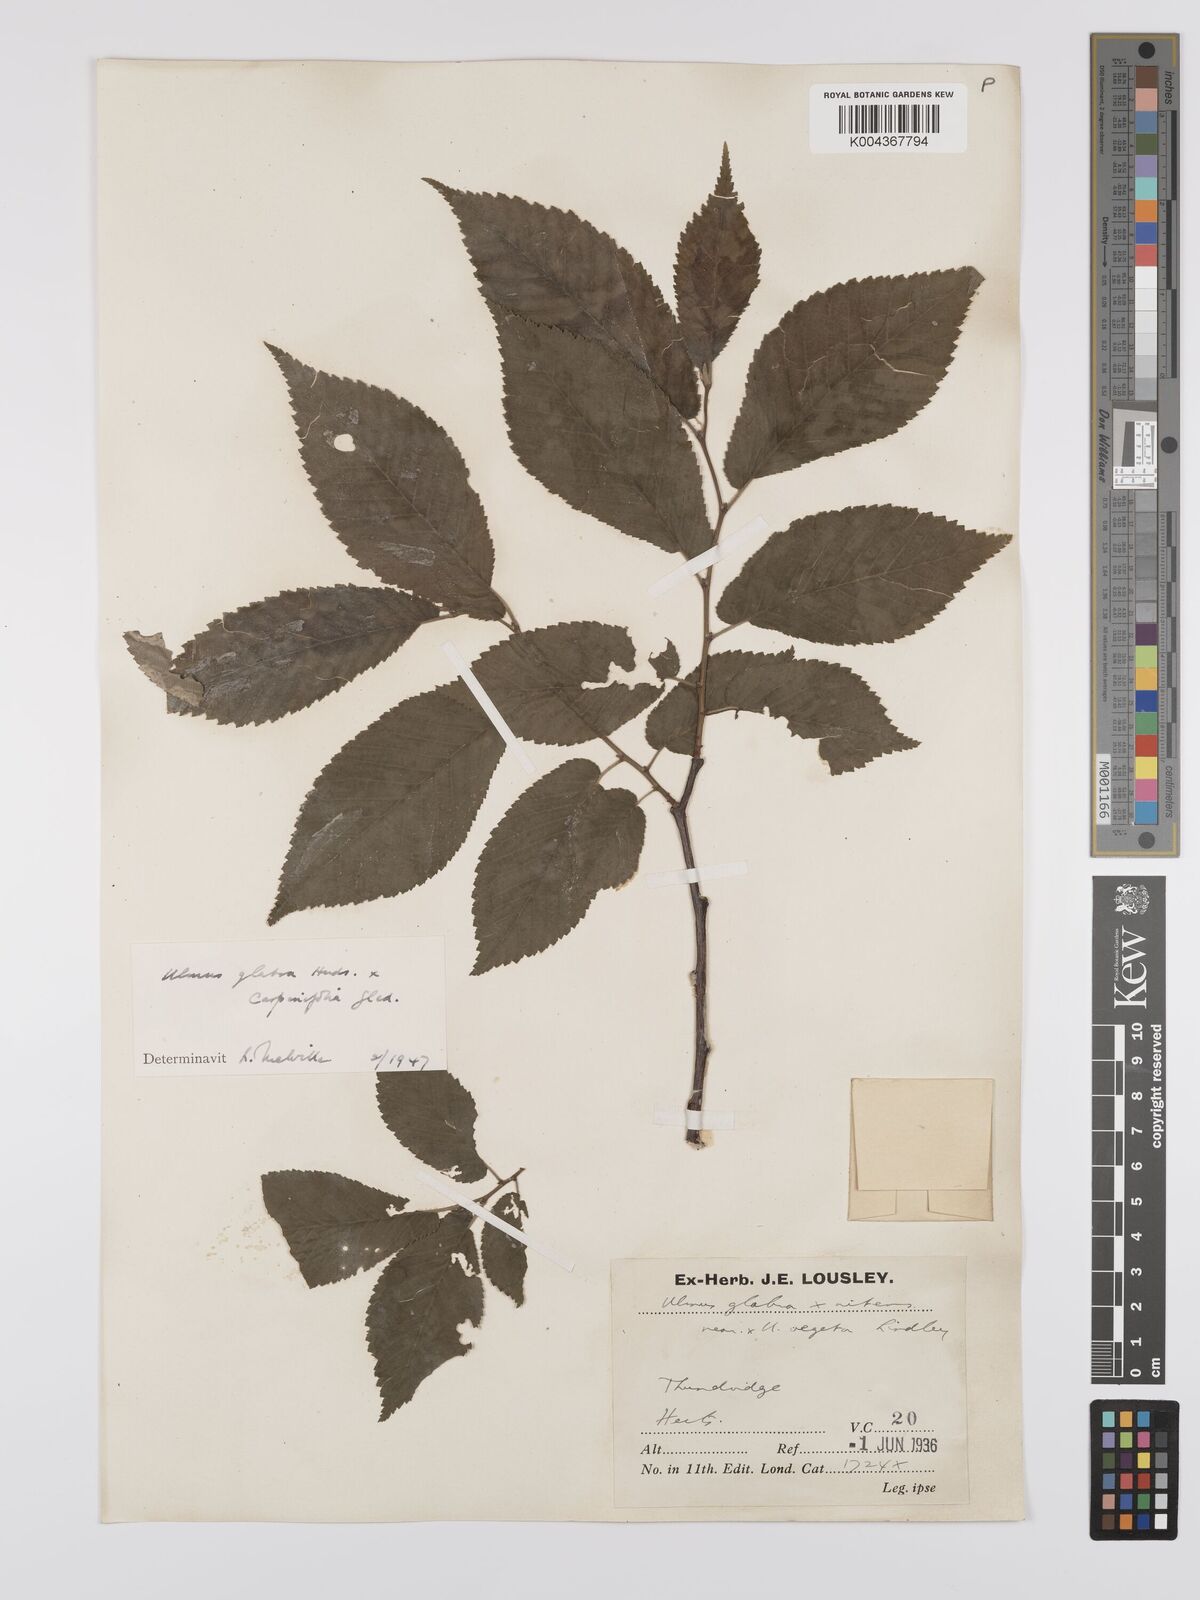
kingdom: Plantae
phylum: Tracheophyta
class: Magnoliopsida
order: Rosales
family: Ulmaceae
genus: Ulmus
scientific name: Ulmus
